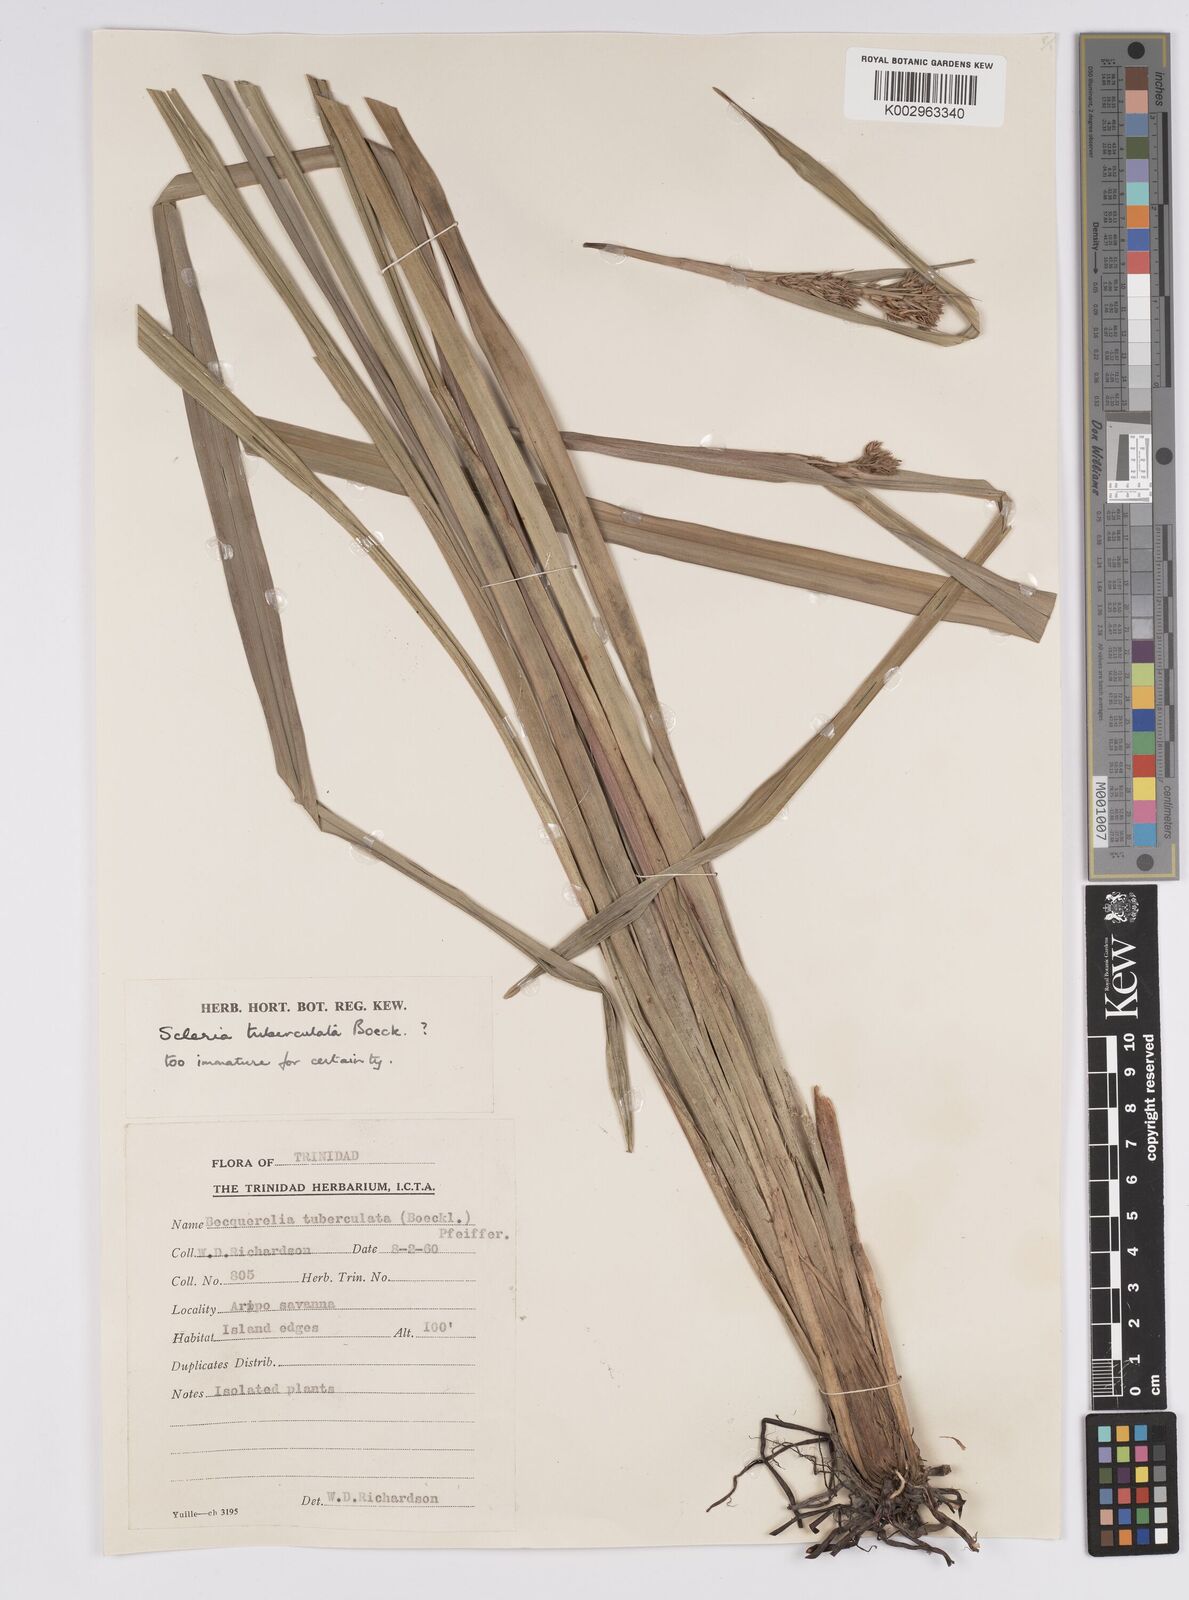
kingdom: Plantae
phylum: Tracheophyta
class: Liliopsida
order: Poales
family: Cyperaceae
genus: Becquerelia
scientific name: Becquerelia tuberculata
